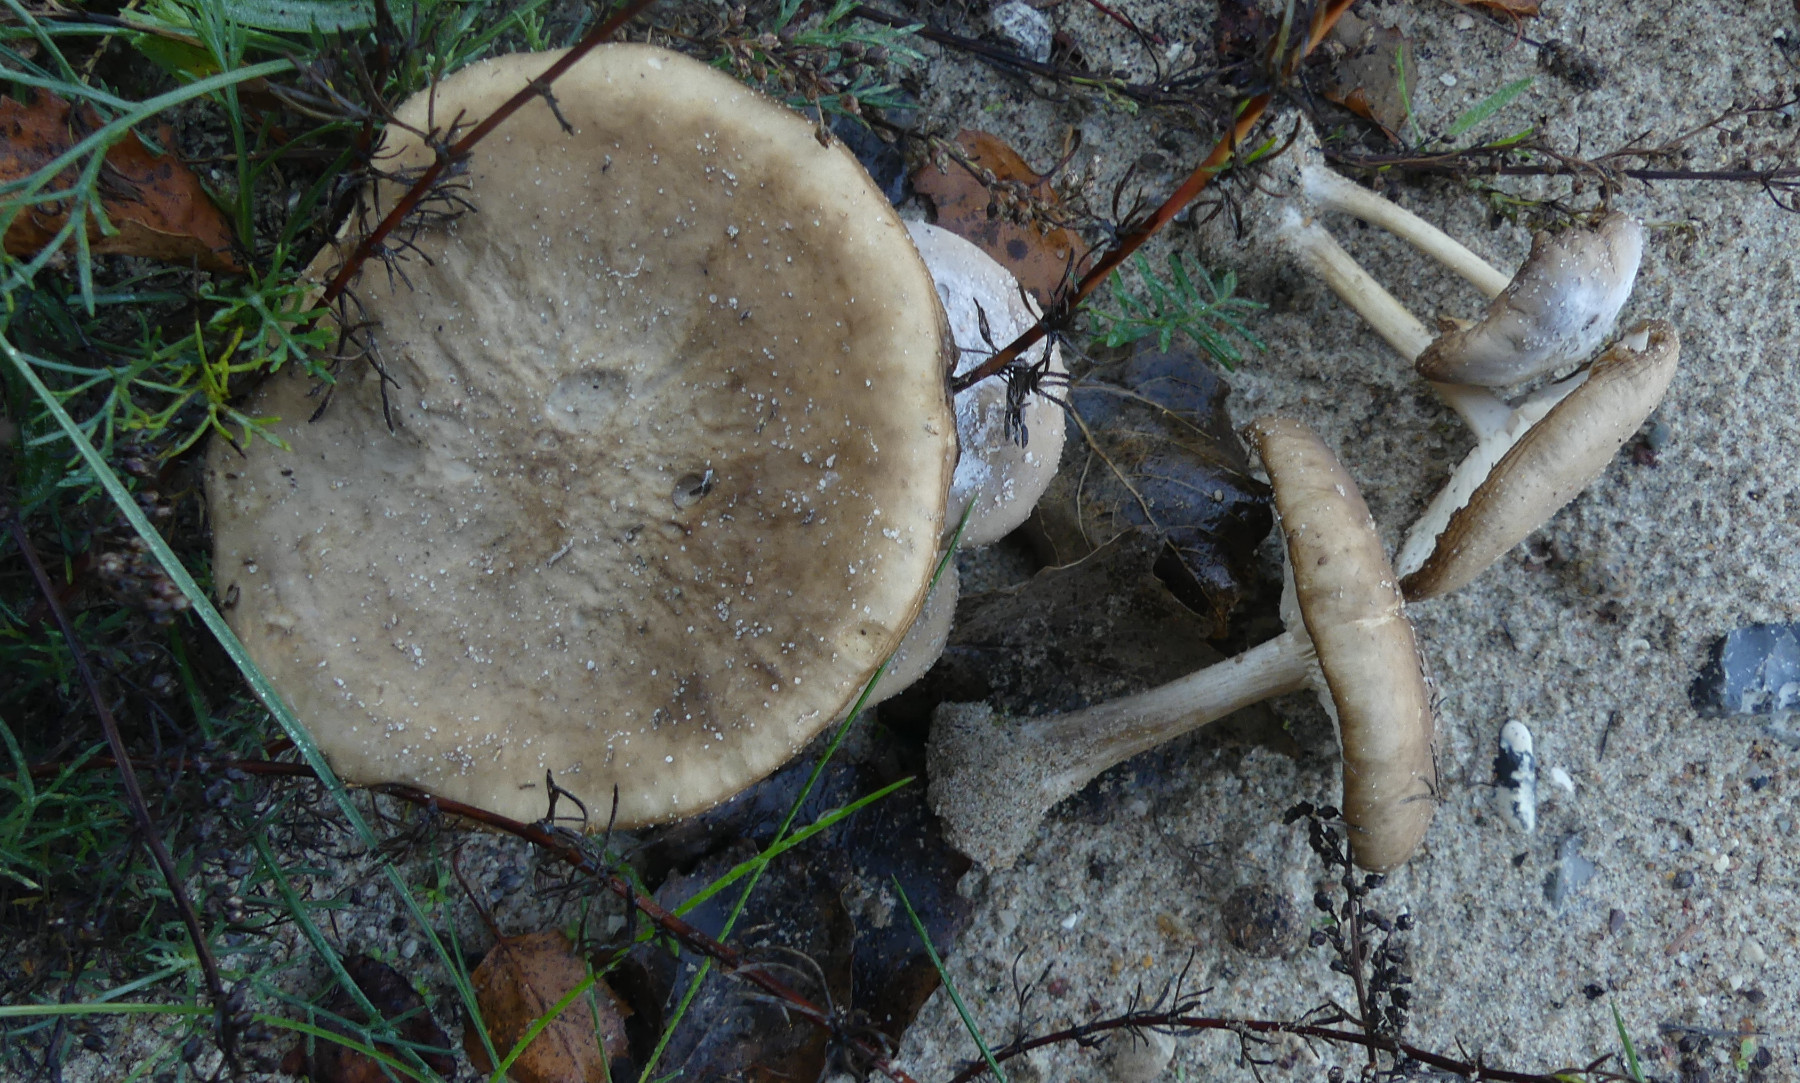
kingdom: Fungi
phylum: Basidiomycota
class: Agaricomycetes
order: Agaricales
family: Tricholomataceae
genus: Melanoleuca
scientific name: Melanoleuca polioleuca
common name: hvidbladet munkehat
